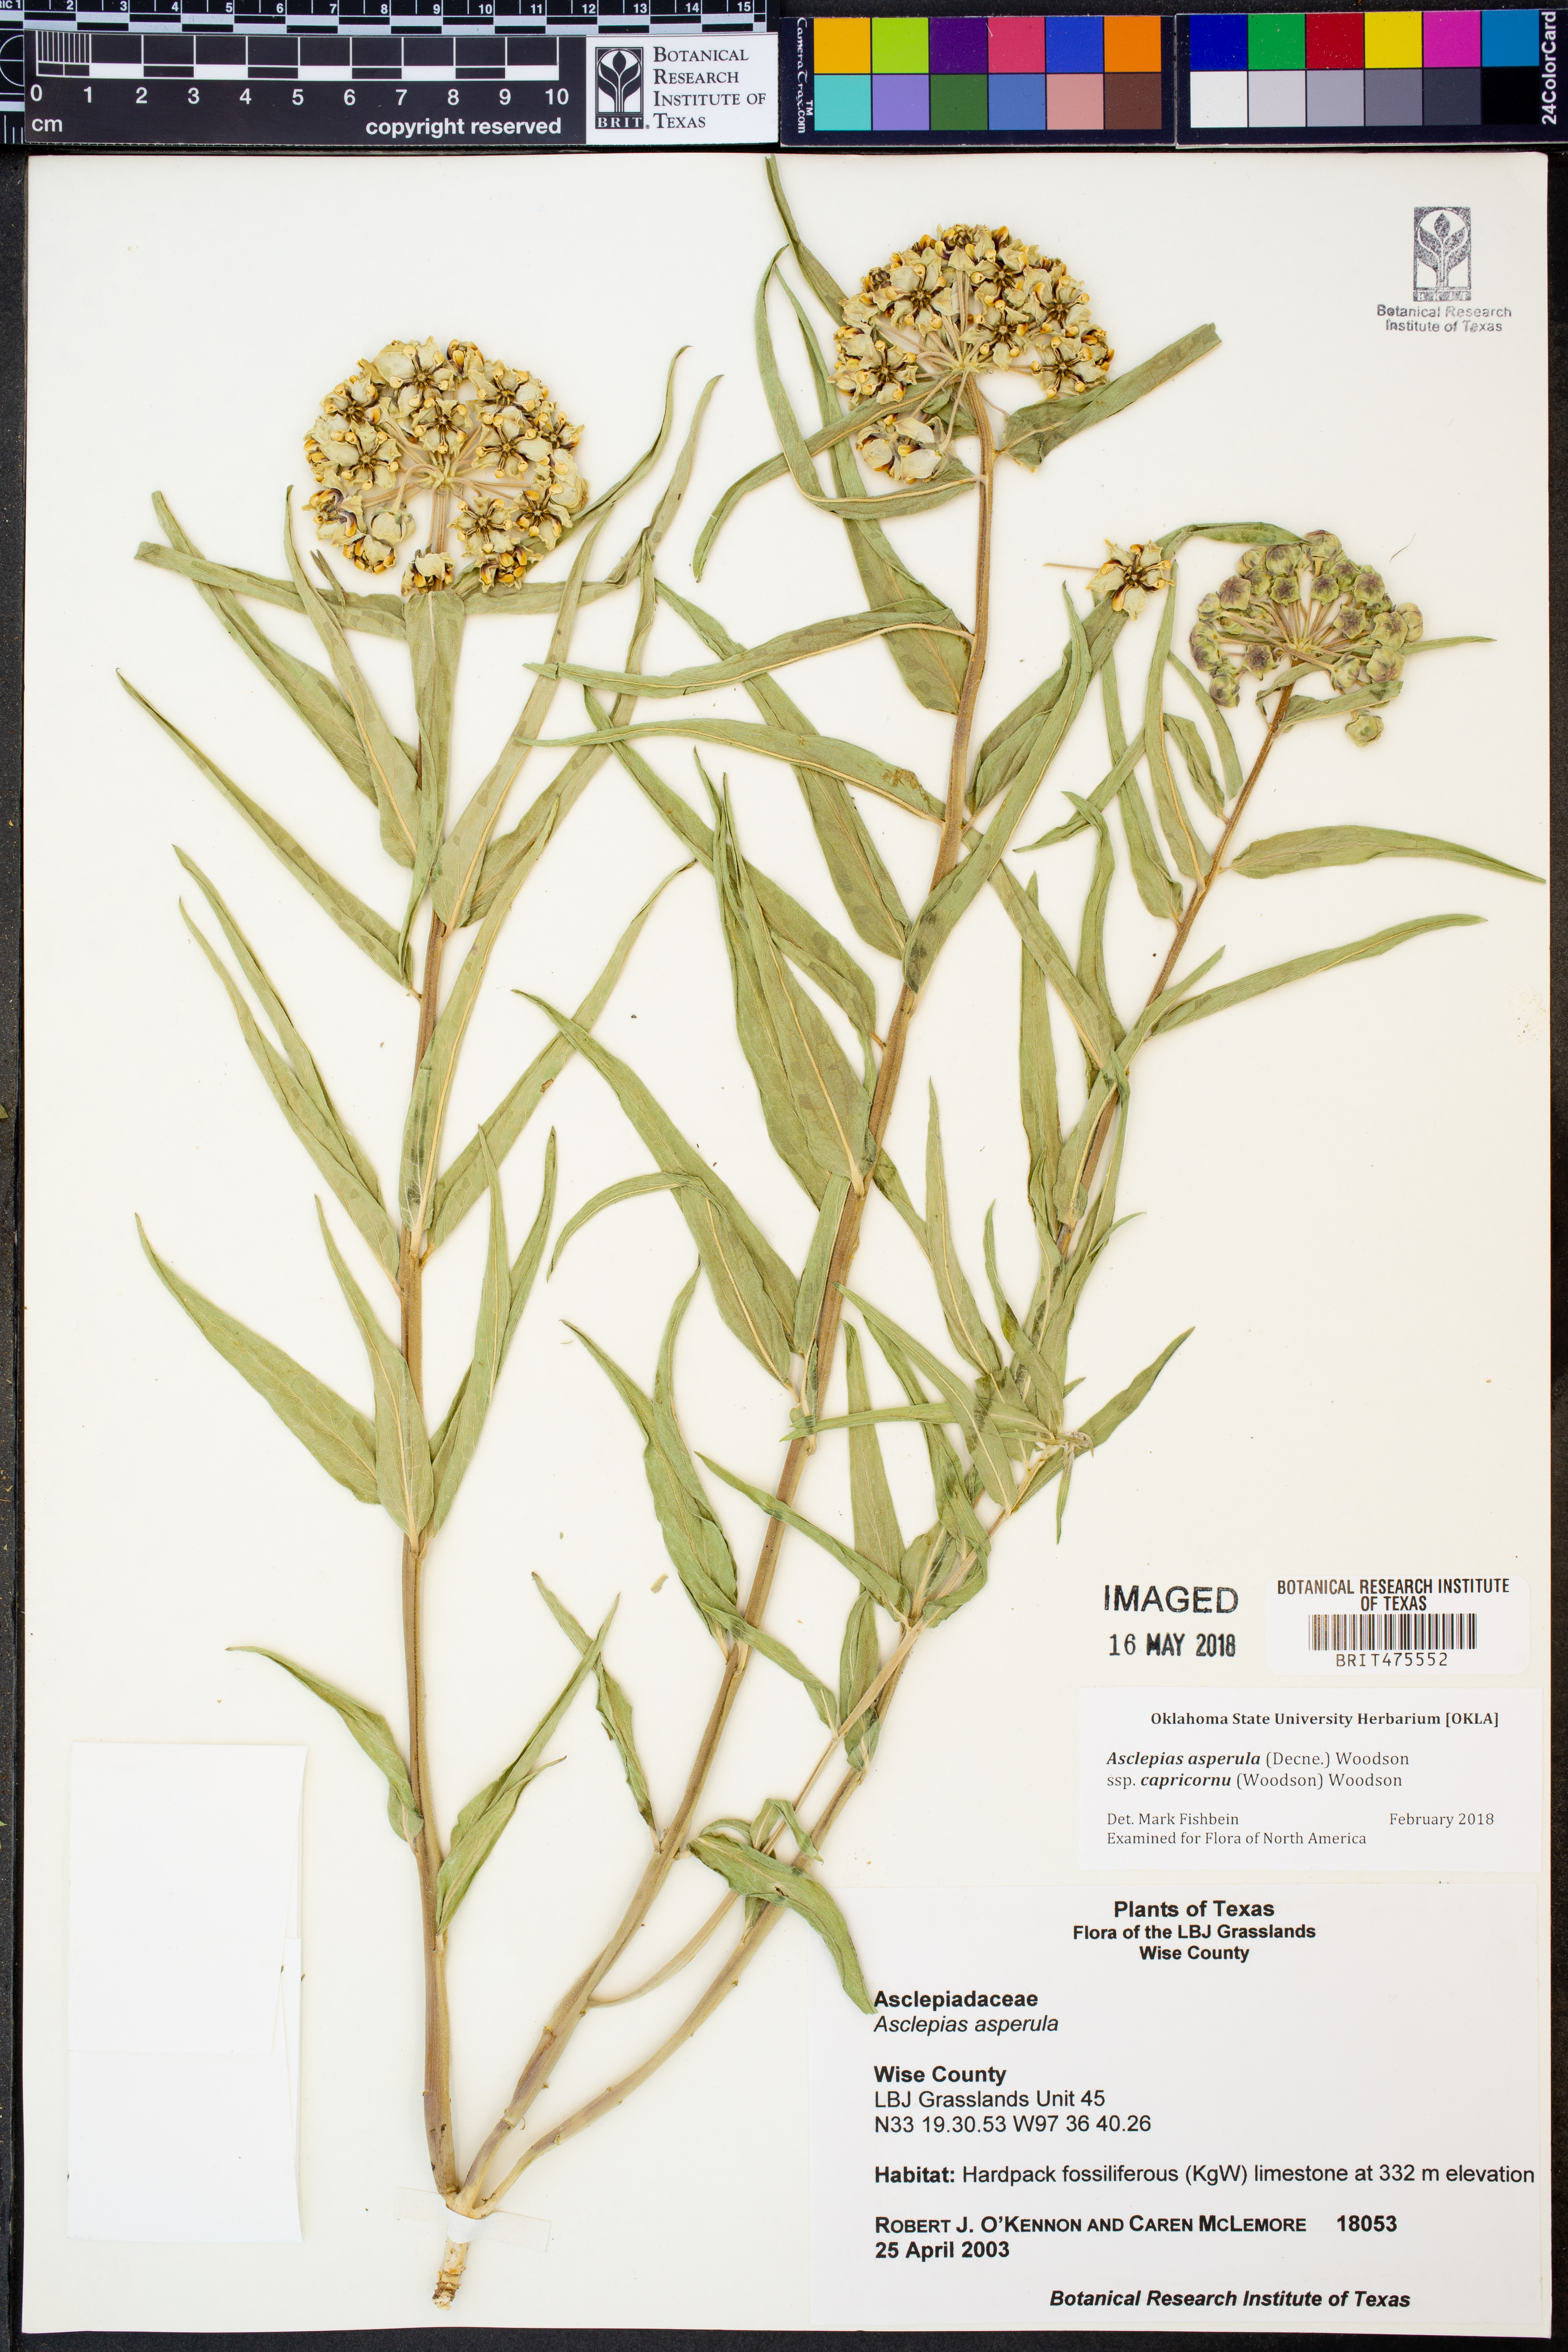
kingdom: Plantae
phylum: Tracheophyta
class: Magnoliopsida
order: Gentianales
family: Apocynaceae
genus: Asclepias
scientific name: Asclepias asperula
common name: Antelope horns
